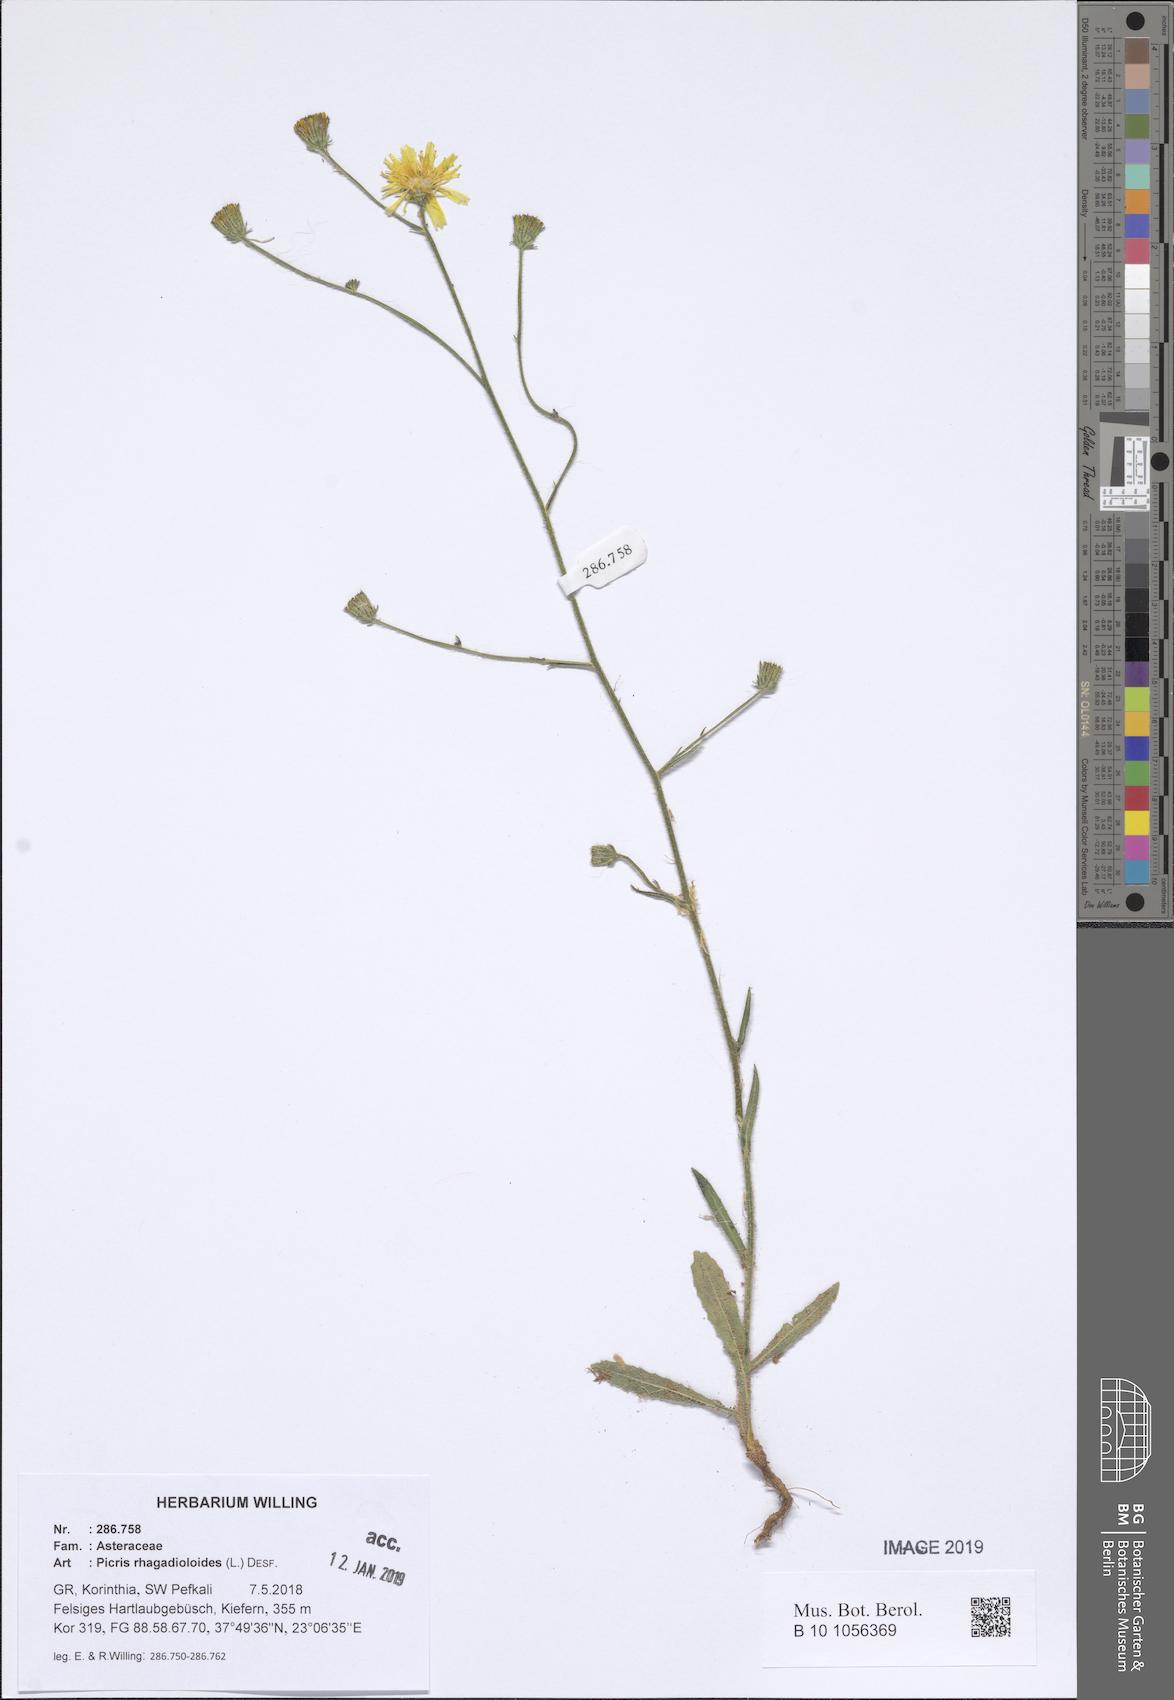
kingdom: Plantae
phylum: Tracheophyta
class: Magnoliopsida
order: Asterales
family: Asteraceae
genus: Picris
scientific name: Picris rhagadioloides
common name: Oxtongue
